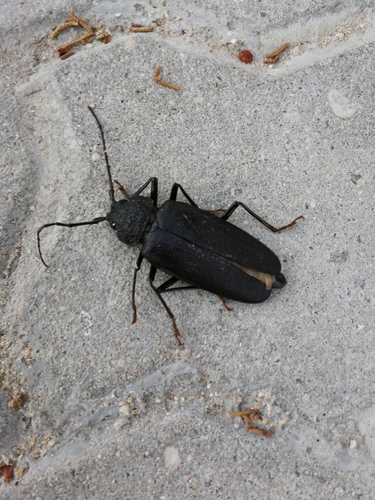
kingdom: Animalia
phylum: Arthropoda
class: Insecta
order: Coleoptera
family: Cerambycidae
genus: Ergates
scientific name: Ergates faber
